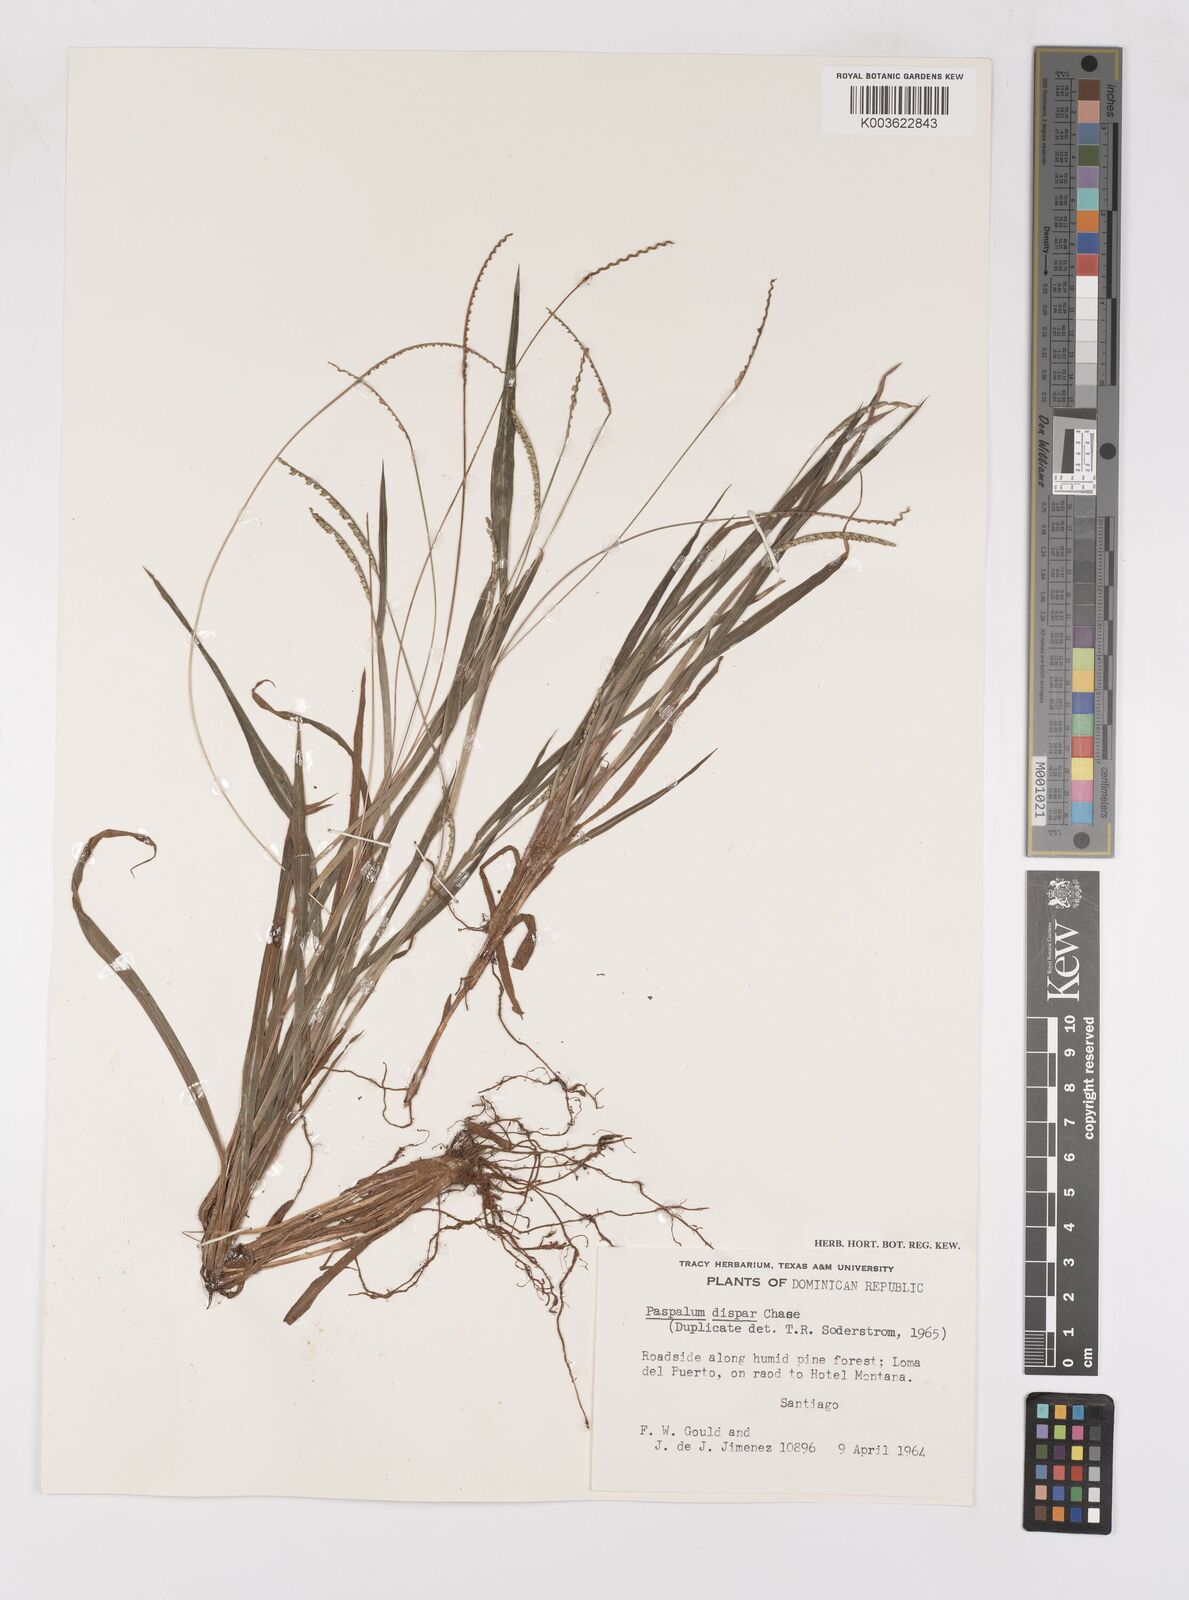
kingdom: Plantae
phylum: Tracheophyta
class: Liliopsida
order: Poales
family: Poaceae
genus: Paspalum
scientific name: Paspalum dispar
